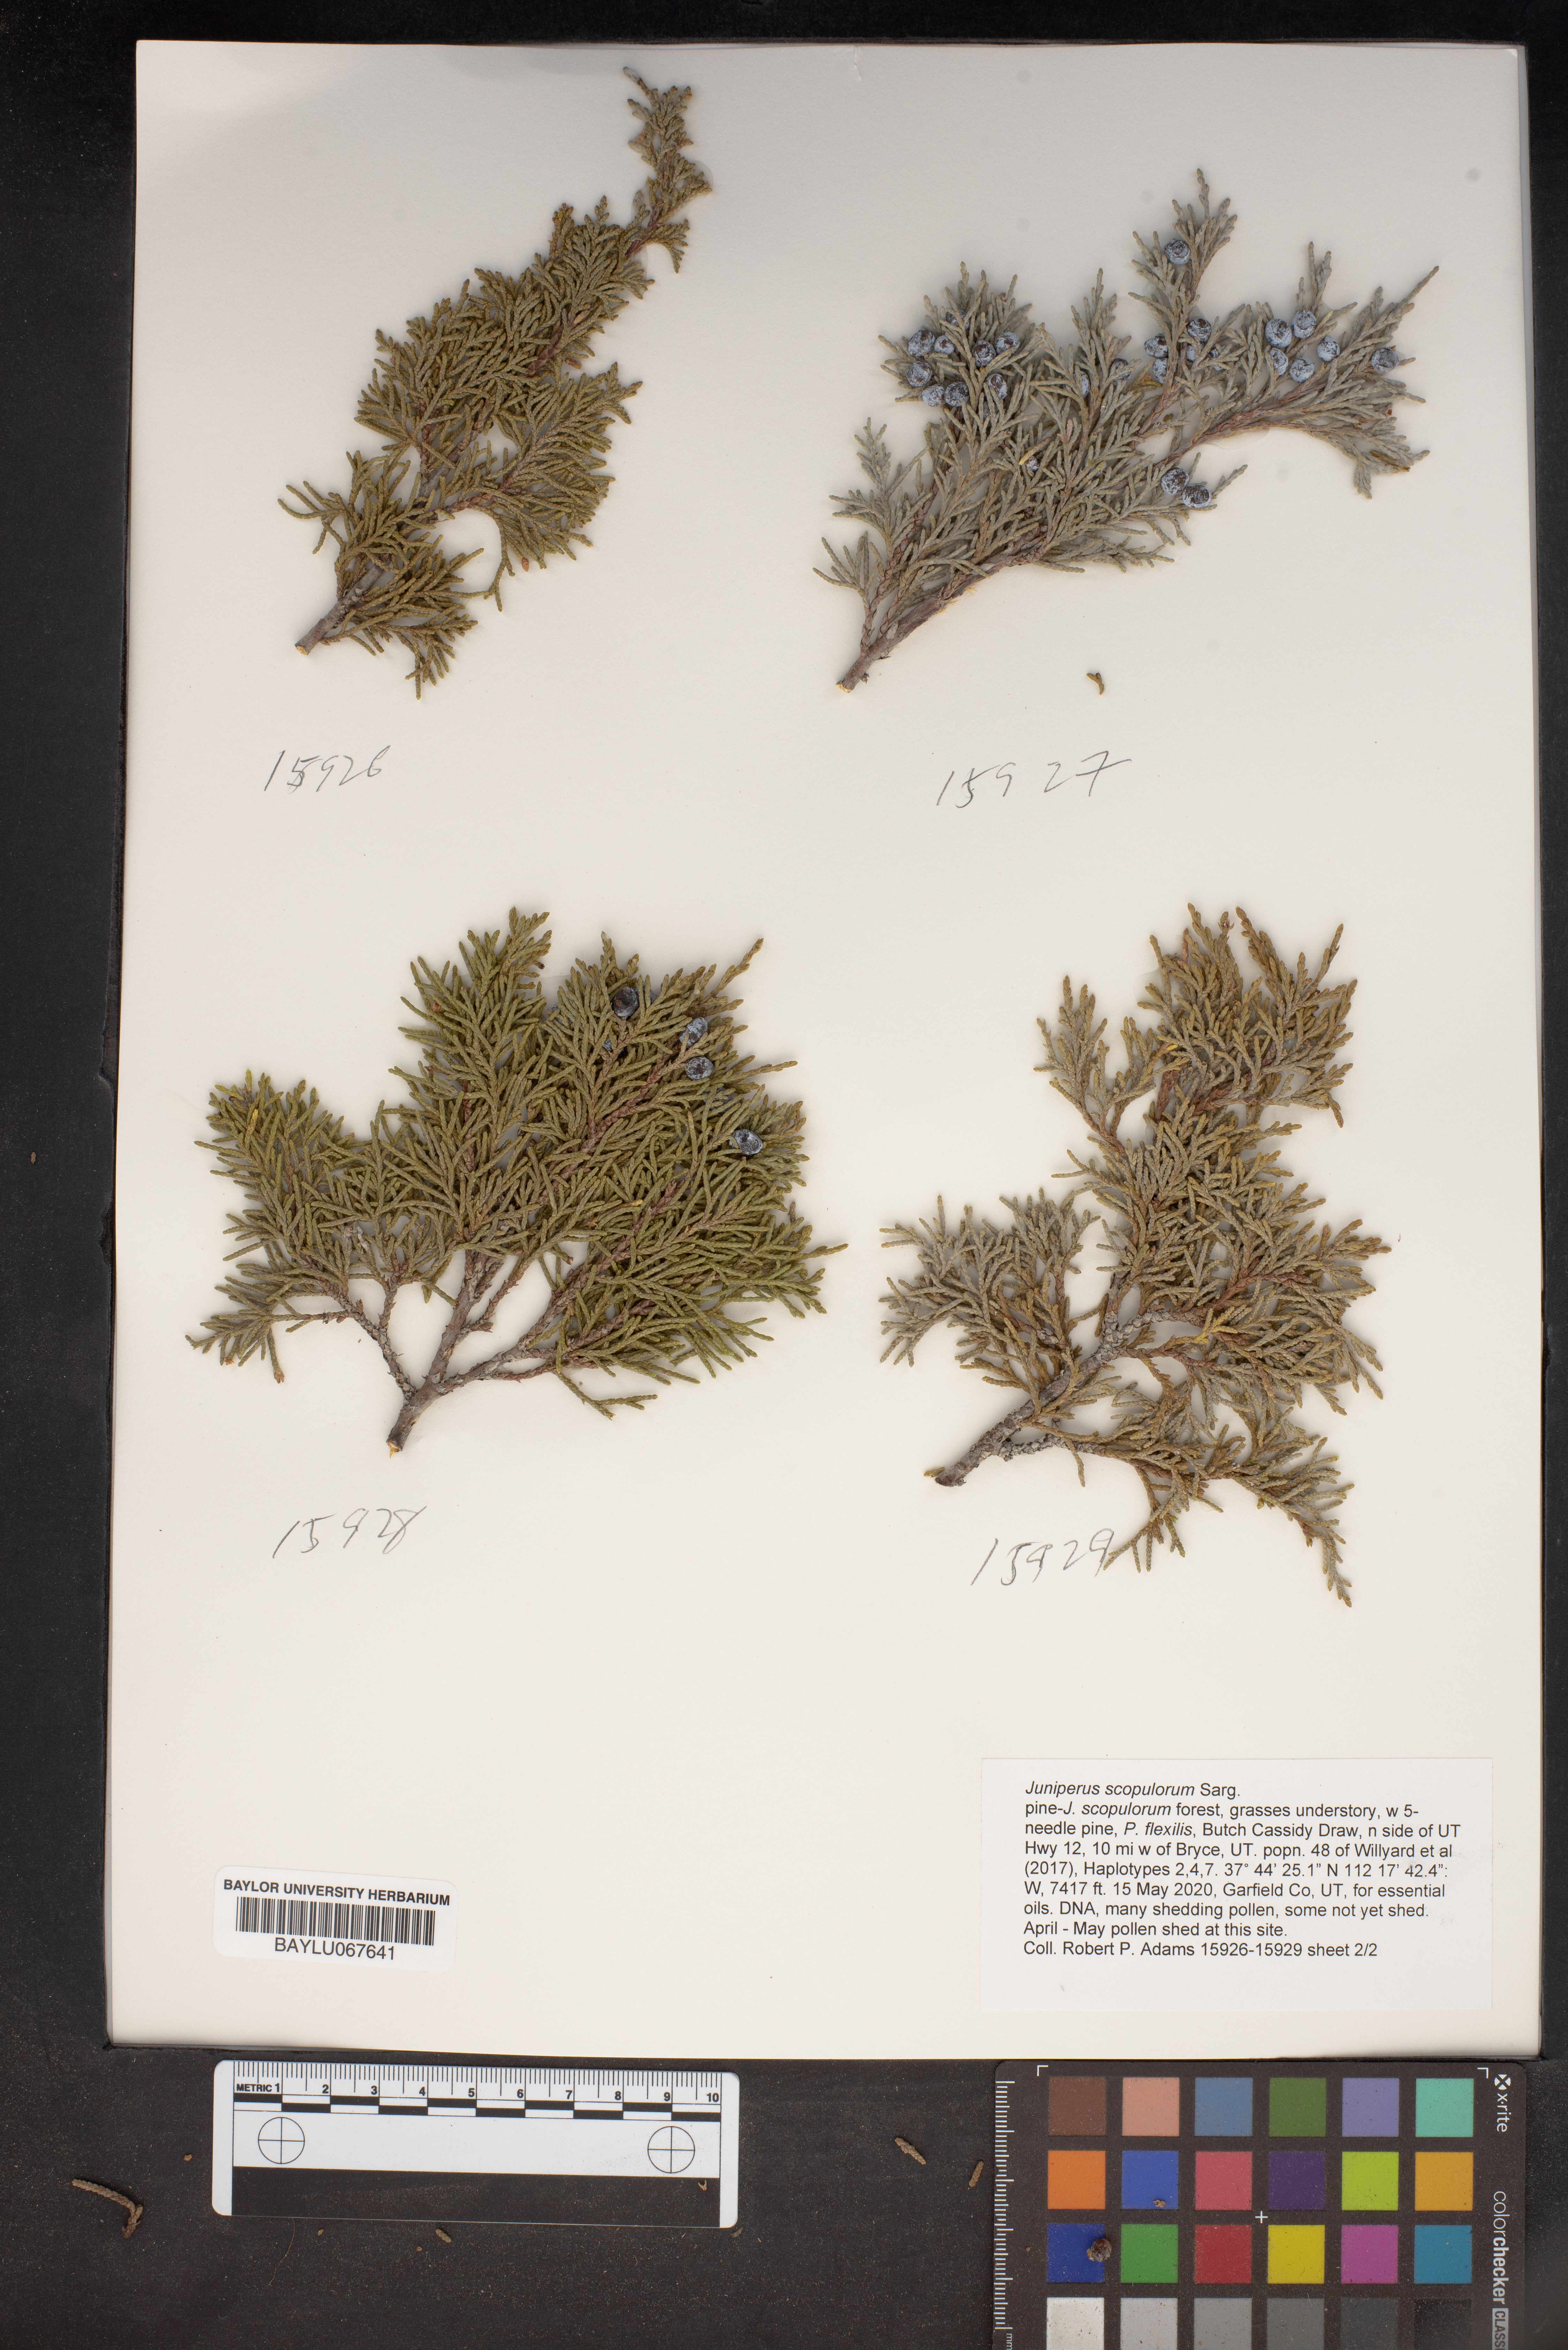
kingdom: Plantae
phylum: Tracheophyta
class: Pinopsida
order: Pinales
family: Cupressaceae
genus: Juniperus
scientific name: Juniperus scopulorum
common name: Rocky mountain juniper
